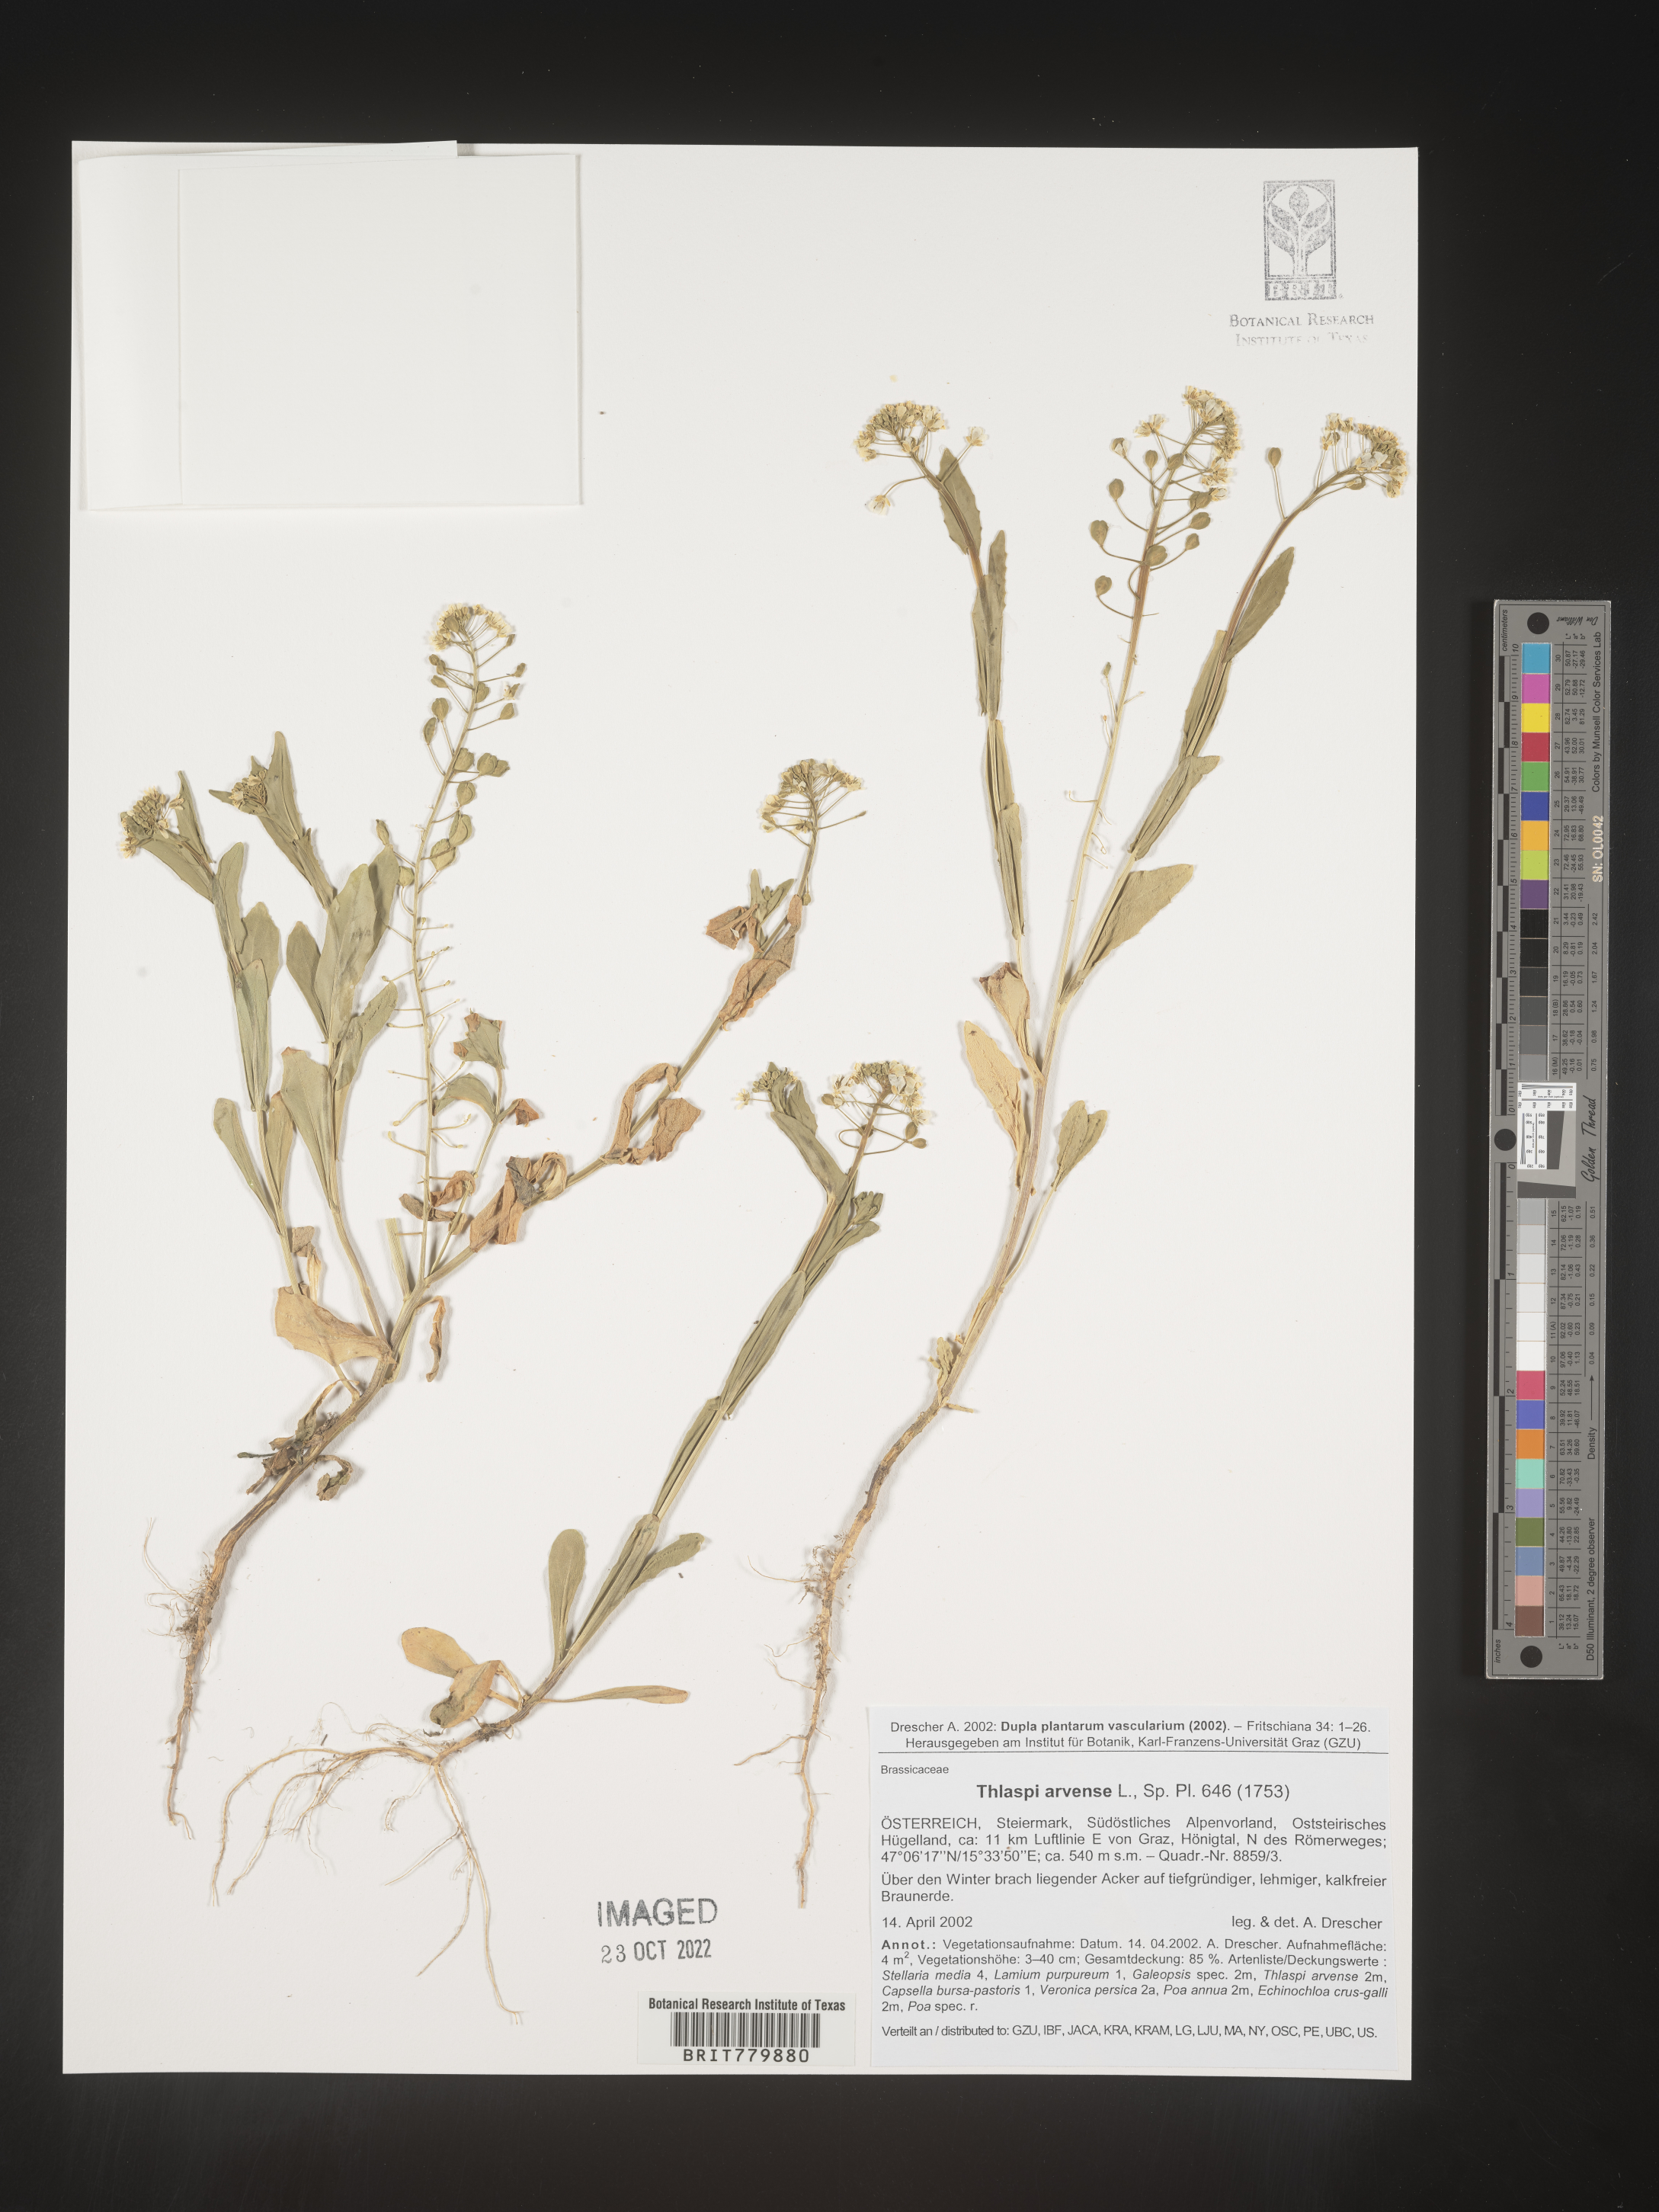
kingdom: Plantae
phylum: Tracheophyta
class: Magnoliopsida
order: Brassicales
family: Brassicaceae
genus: Thlaspi
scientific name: Thlaspi
